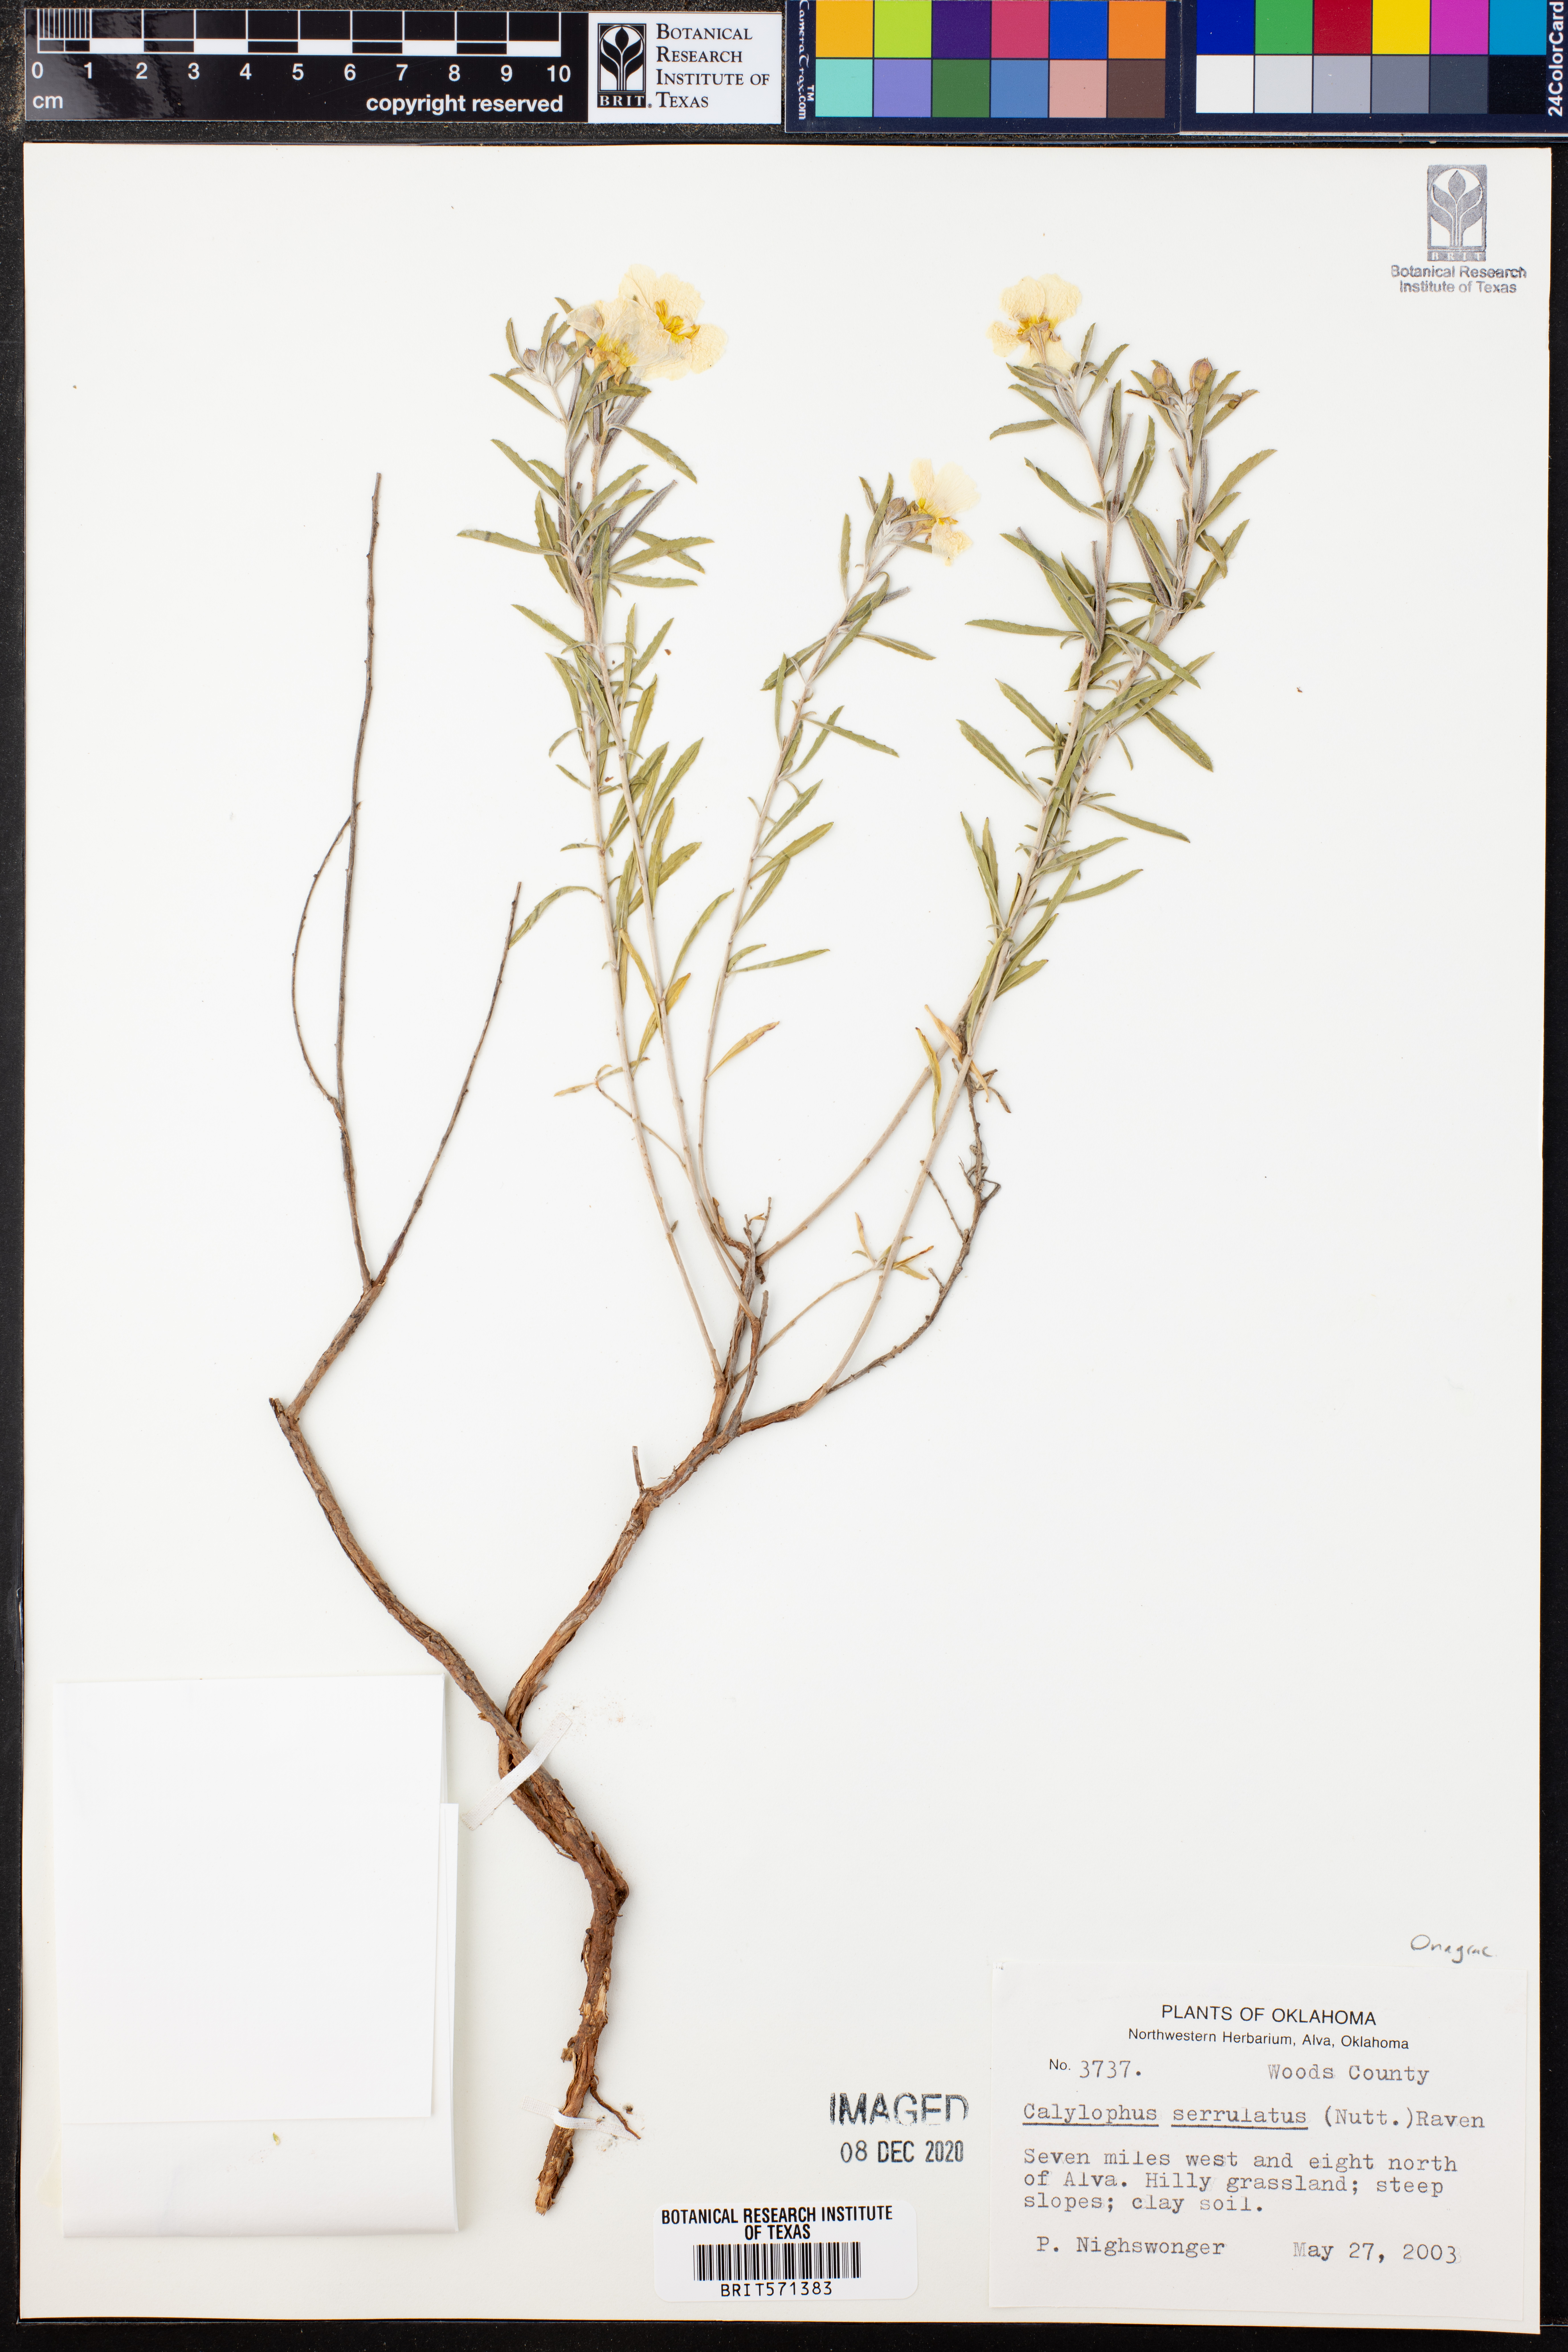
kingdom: Plantae
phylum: Tracheophyta
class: Magnoliopsida
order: Myrtales
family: Onagraceae
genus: Oenothera
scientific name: Oenothera serrulata
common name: Half-shrub calylophus
